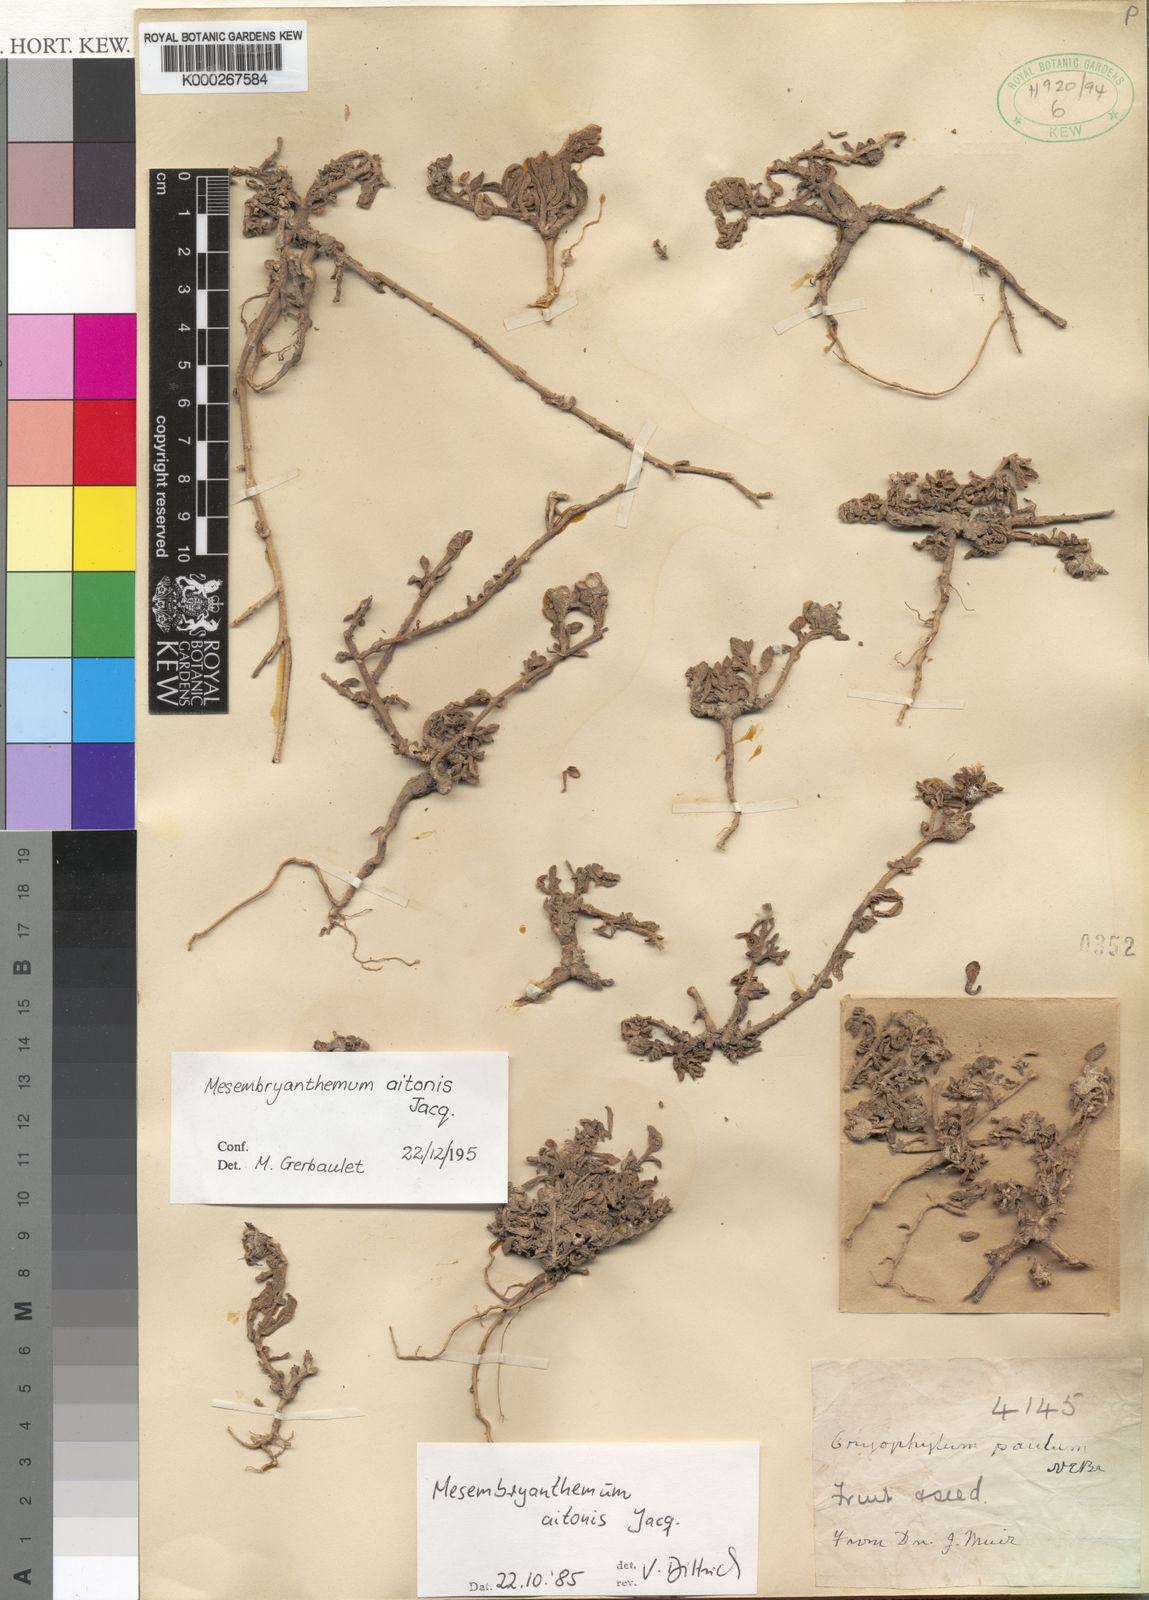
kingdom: Plantae
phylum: Tracheophyta
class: Magnoliopsida
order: Caryophyllales
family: Aizoaceae
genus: Mesembryanthemum
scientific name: Mesembryanthemum aitonis
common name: Angled iceplant
